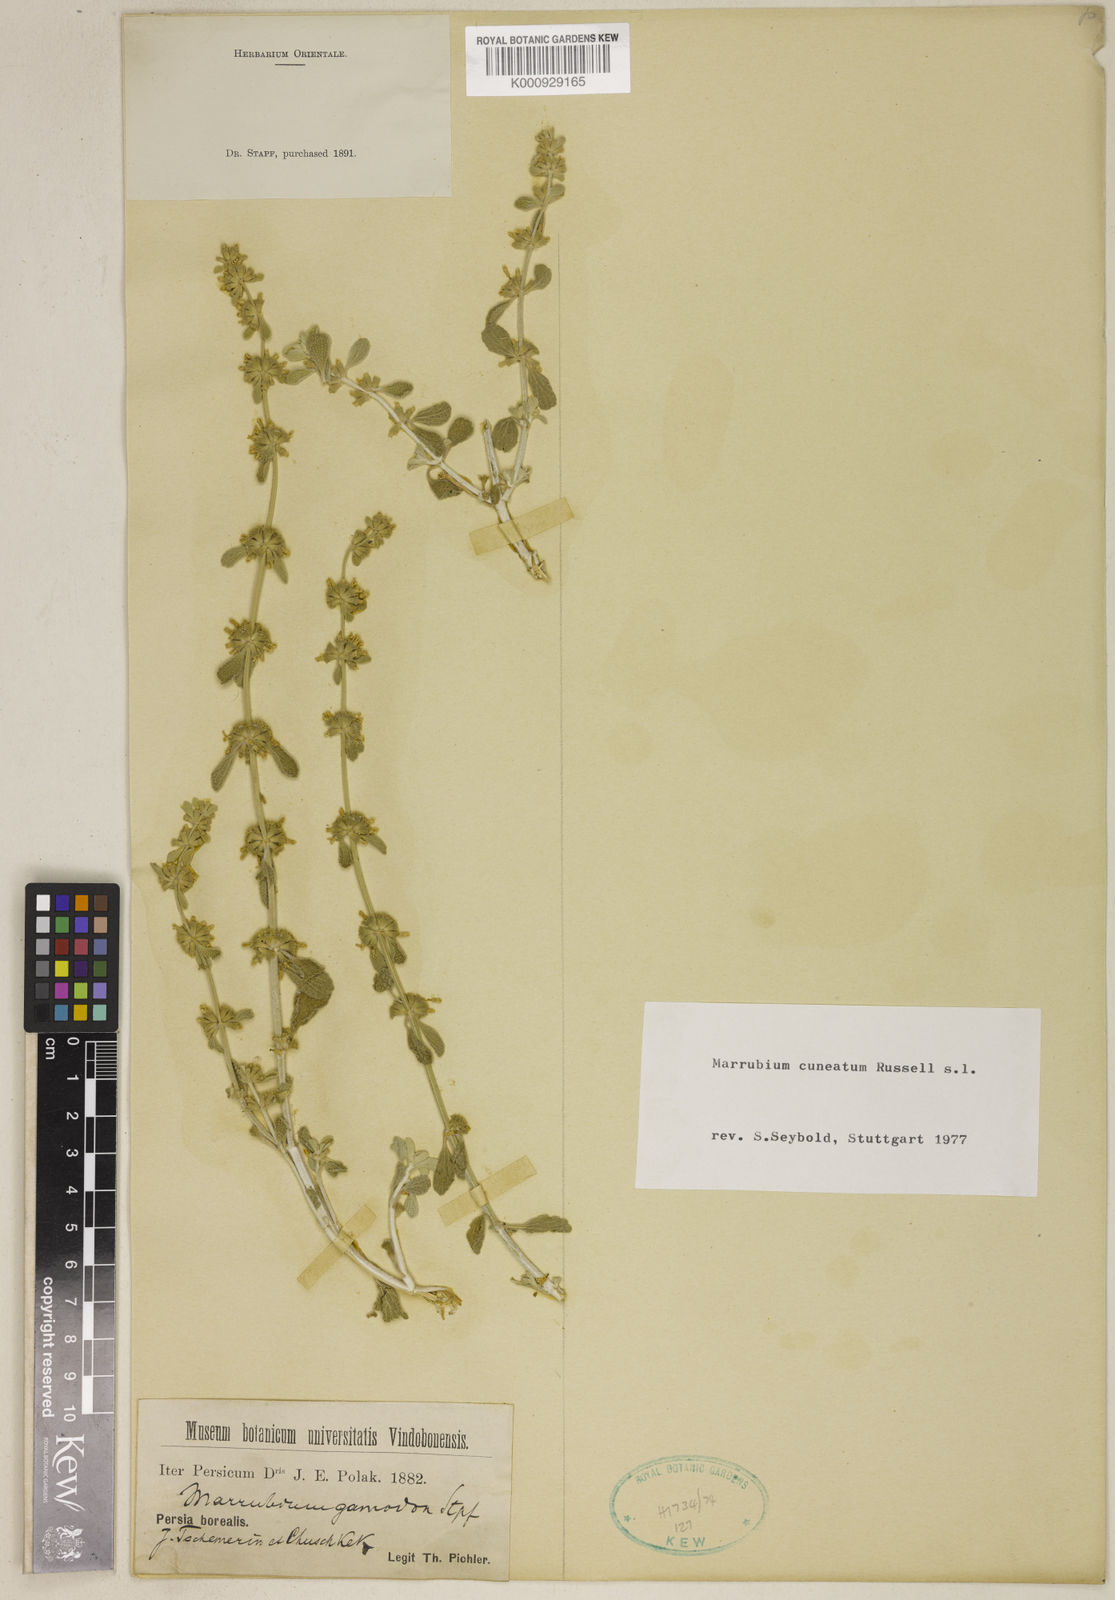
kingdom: Plantae
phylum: Tracheophyta
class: Magnoliopsida
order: Lamiales
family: Lamiaceae
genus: Marrubium
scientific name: Marrubium cuneatum
